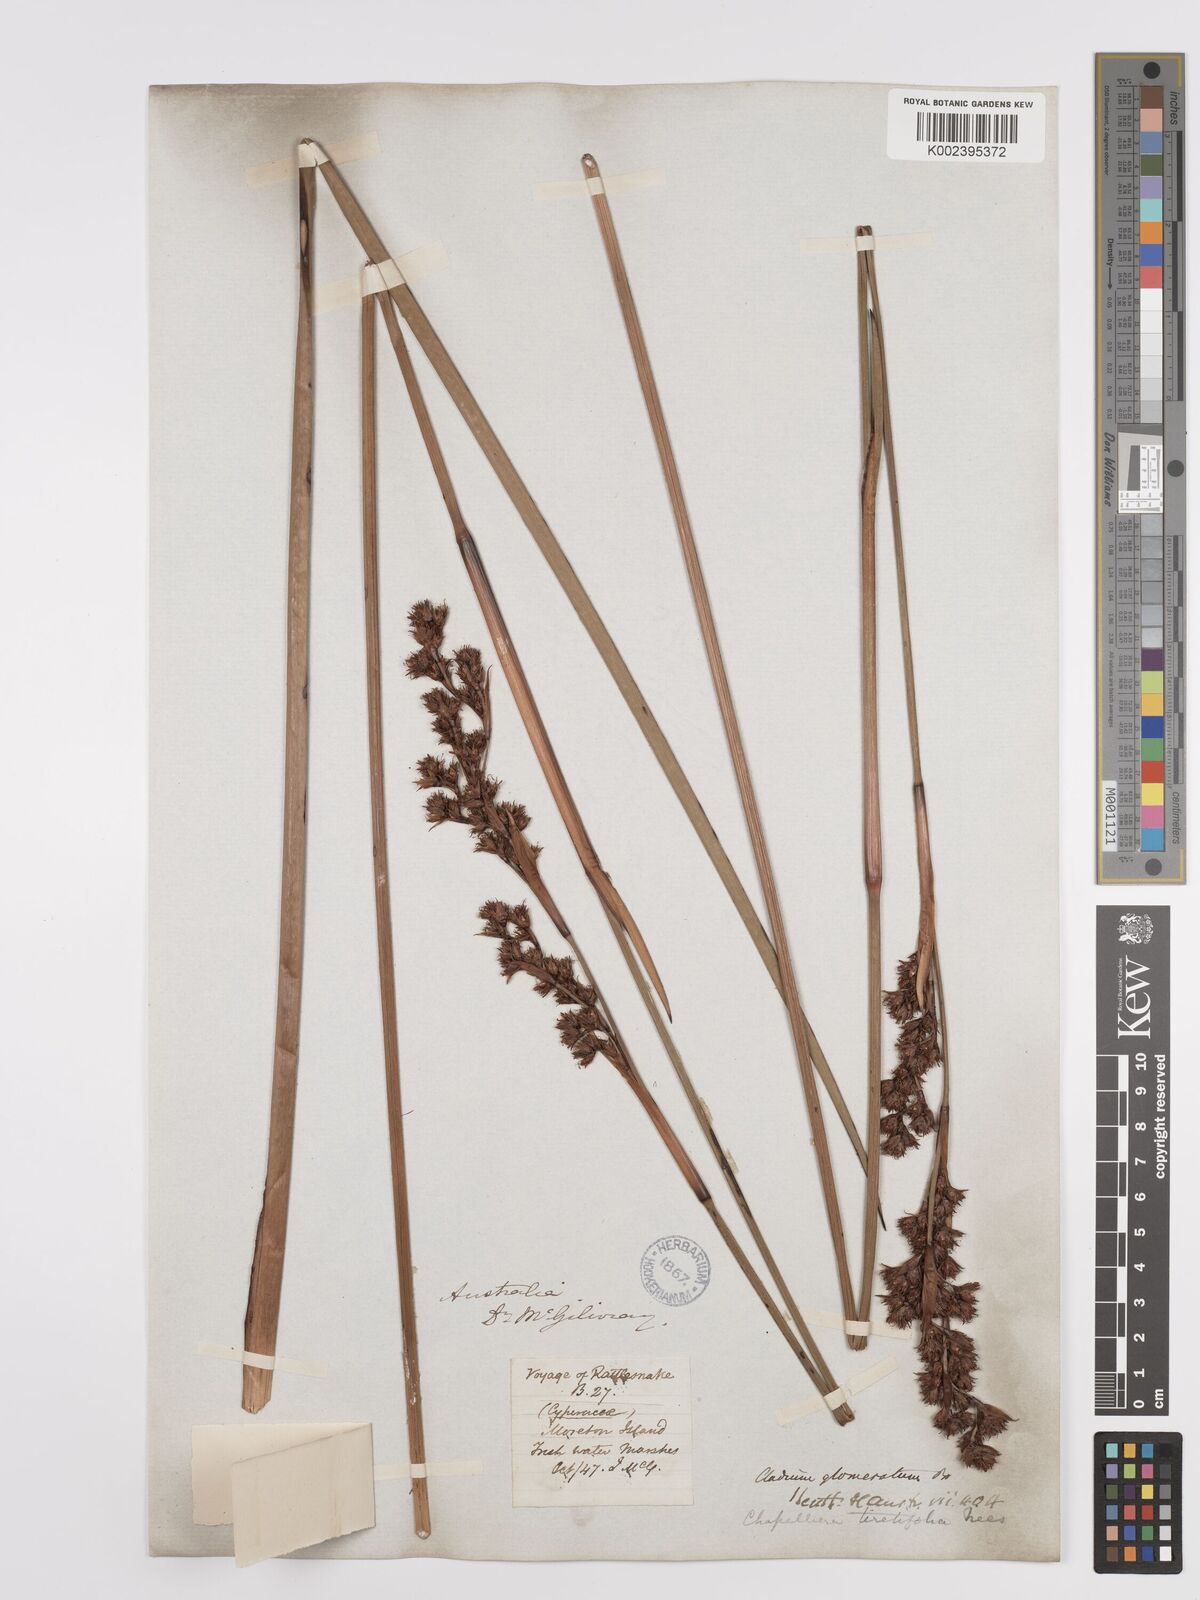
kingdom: Plantae
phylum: Tracheophyta
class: Liliopsida
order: Poales
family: Cyperaceae
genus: Machaerina
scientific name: Machaerina rubiginosa
